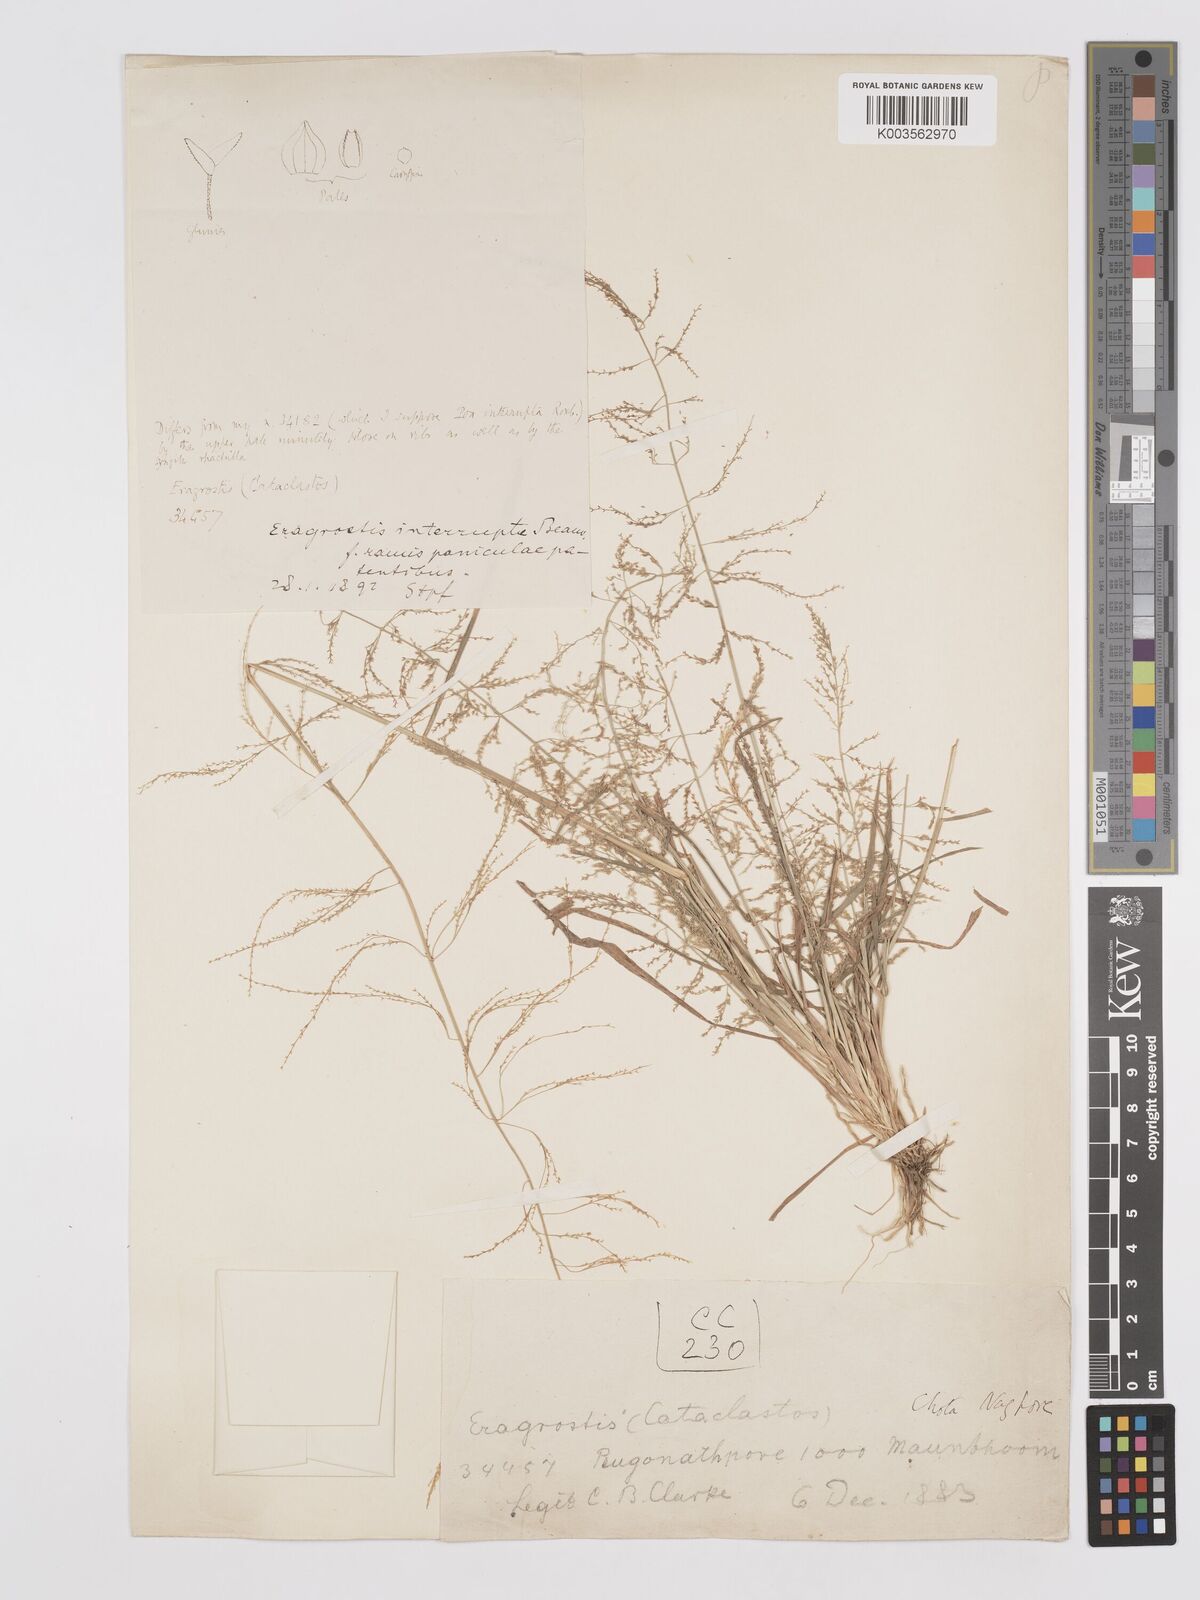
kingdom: Plantae
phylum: Tracheophyta
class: Liliopsida
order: Poales
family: Poaceae
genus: Eragrostis
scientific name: Eragrostis japonica
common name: Pond lovegrass
